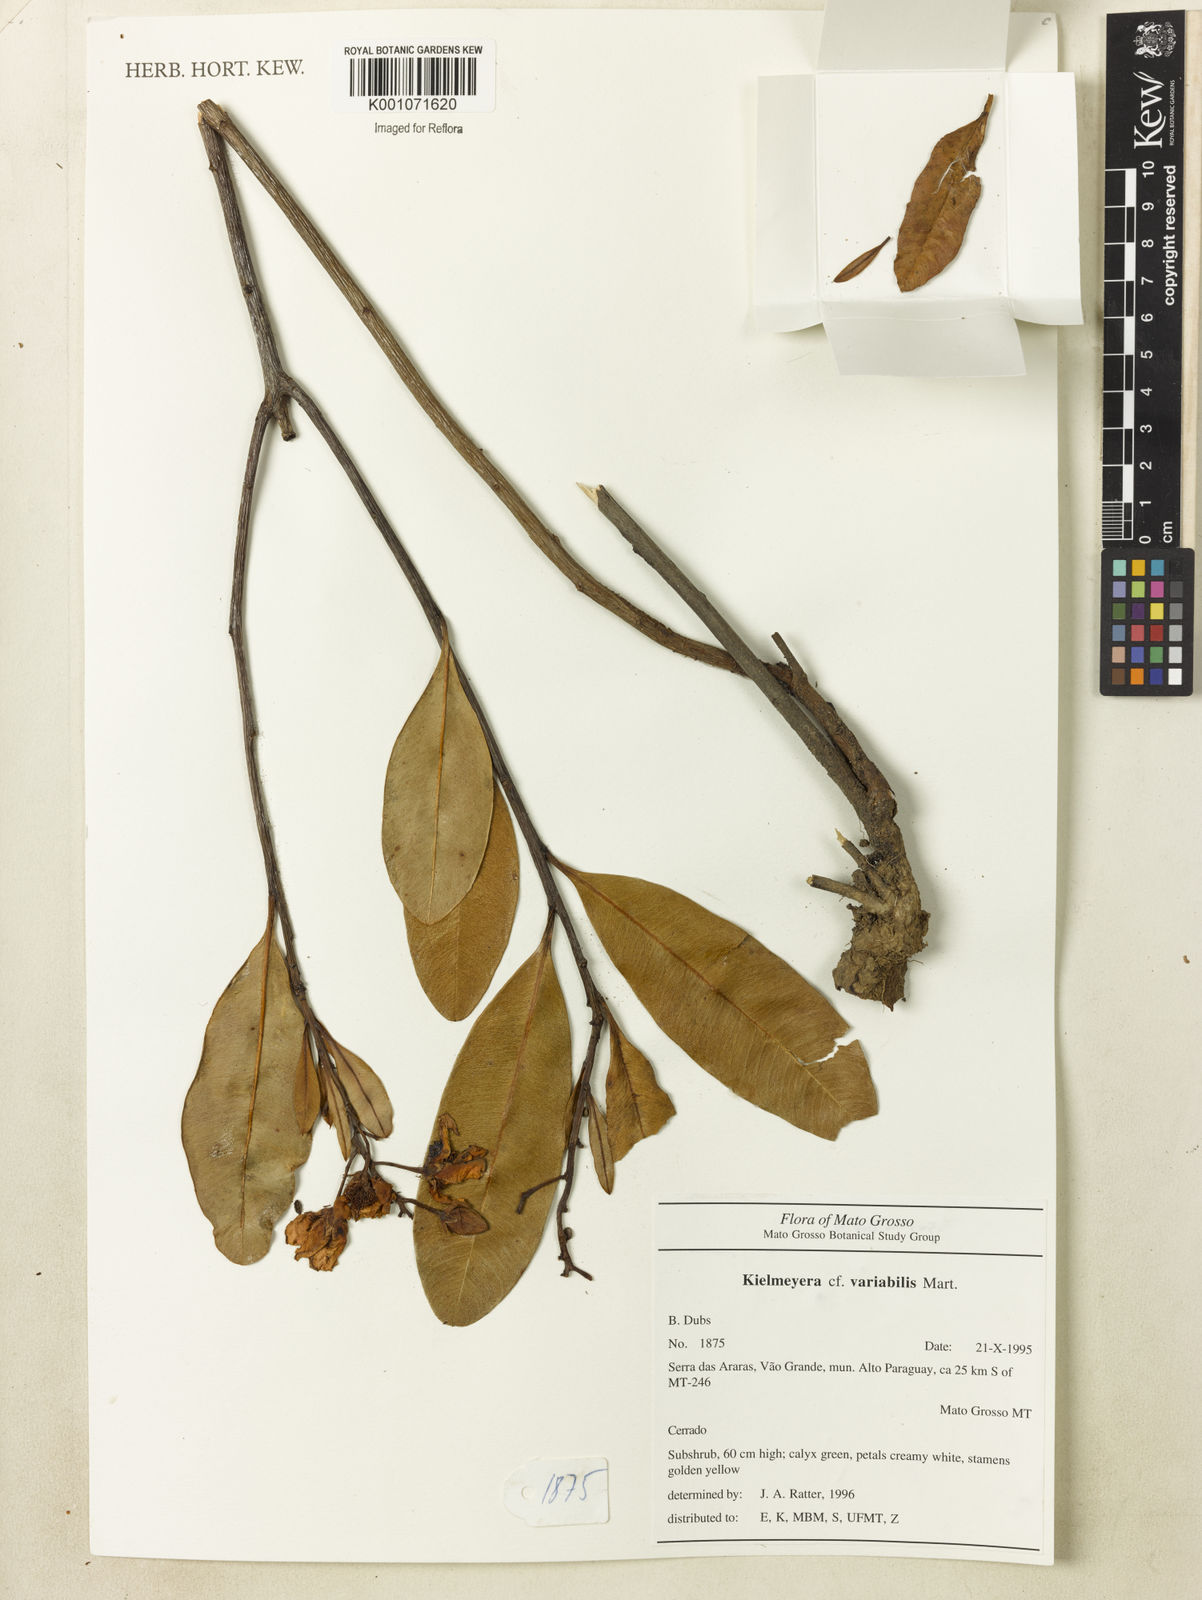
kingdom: Plantae
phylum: Tracheophyta
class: Magnoliopsida
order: Malpighiales
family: Calophyllaceae
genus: Kielmeyera
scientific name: Kielmeyera variabilis
